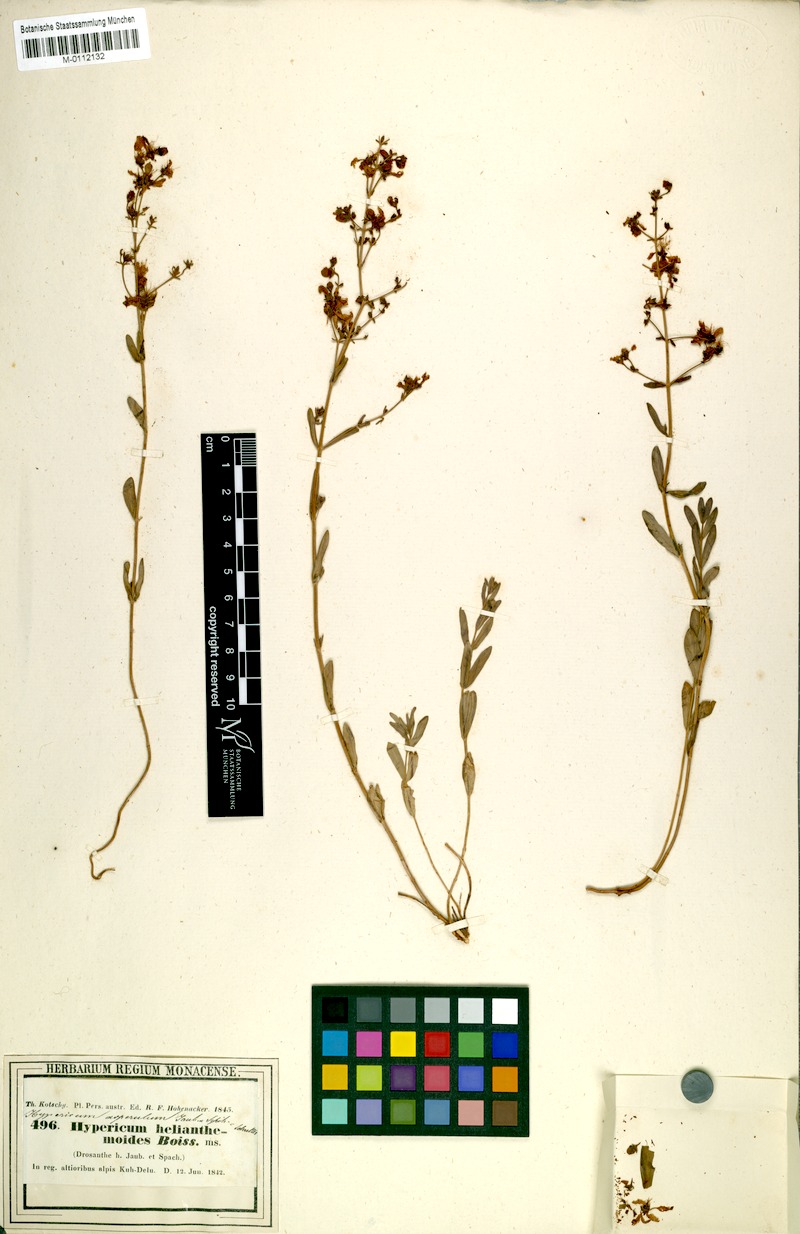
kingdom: Plantae
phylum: Tracheophyta
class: Magnoliopsida
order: Malpighiales
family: Hypericaceae
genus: Hypericum
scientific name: Hypericum asperulum
